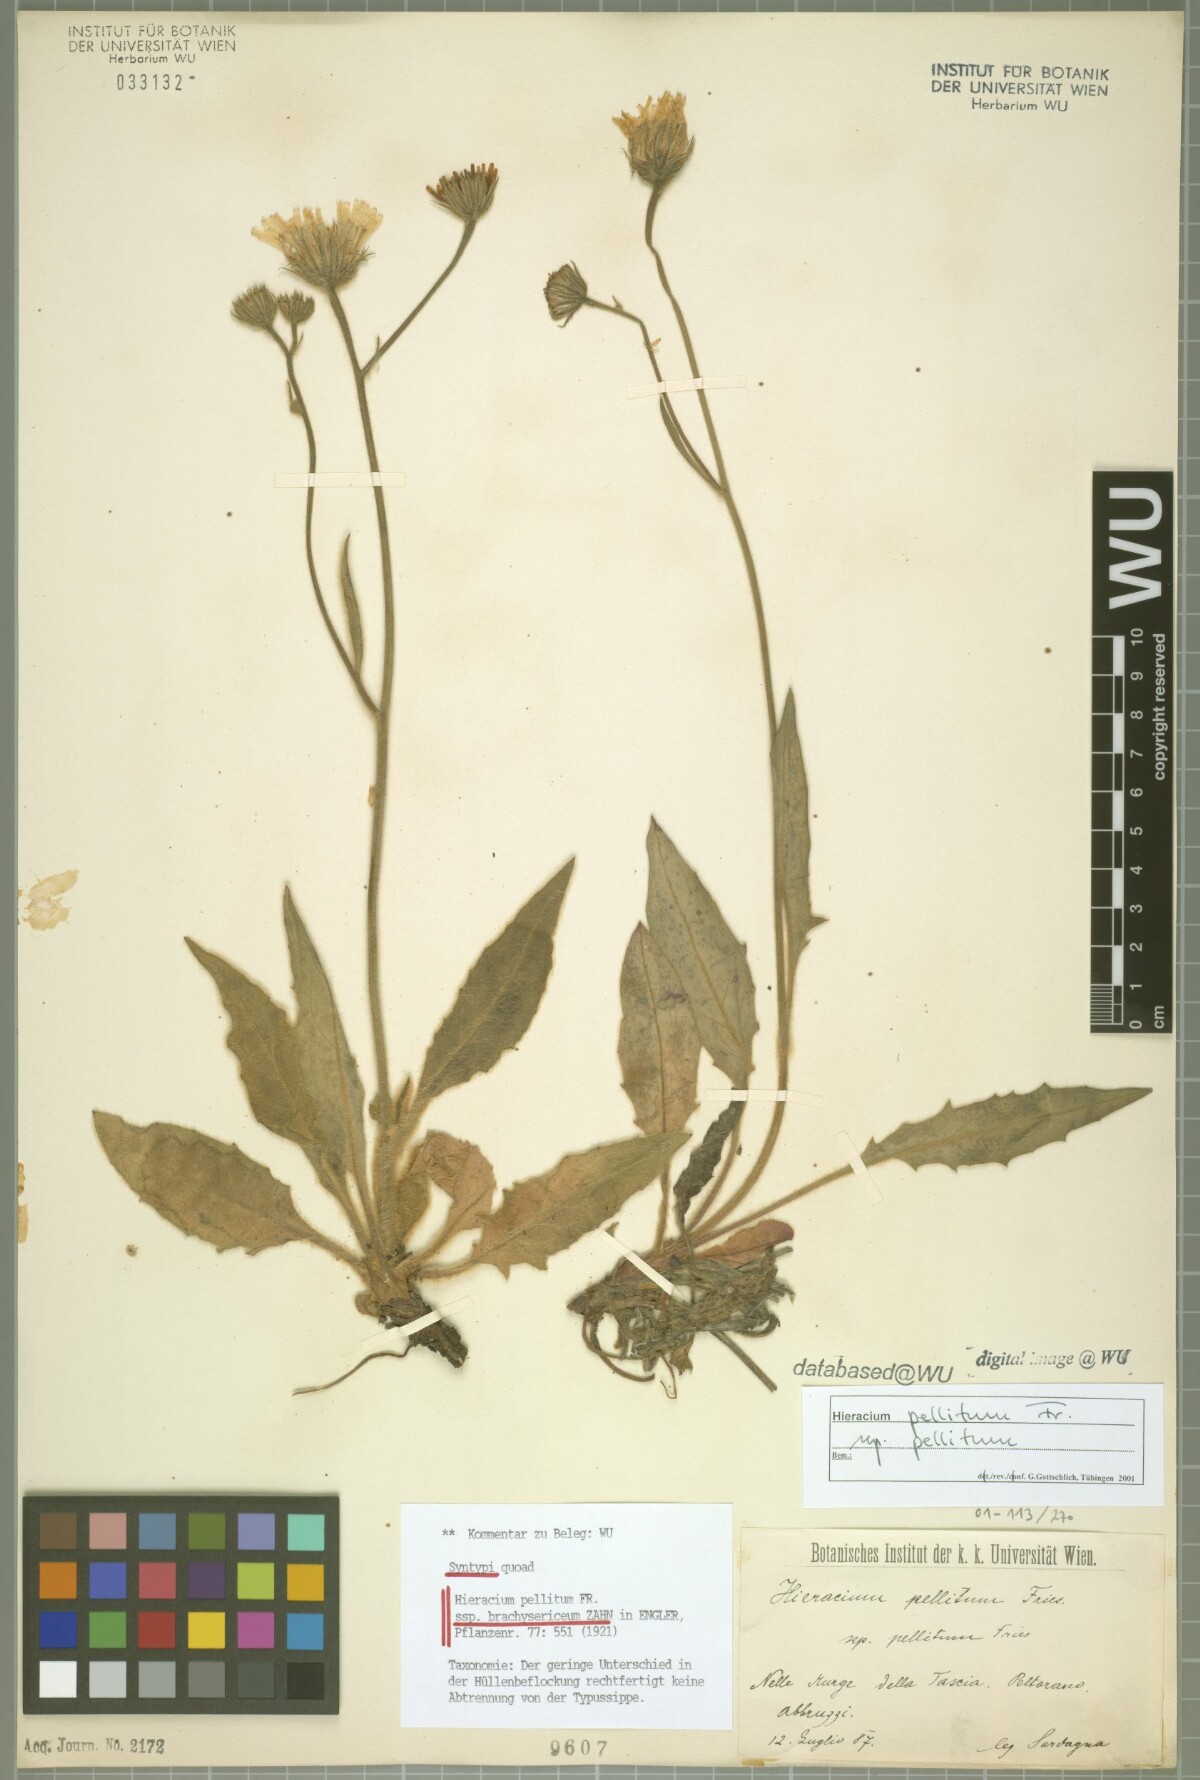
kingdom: Plantae
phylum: Tracheophyta
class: Magnoliopsida
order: Asterales
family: Asteraceae
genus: Hieracium
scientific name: Hieracium pellitum
